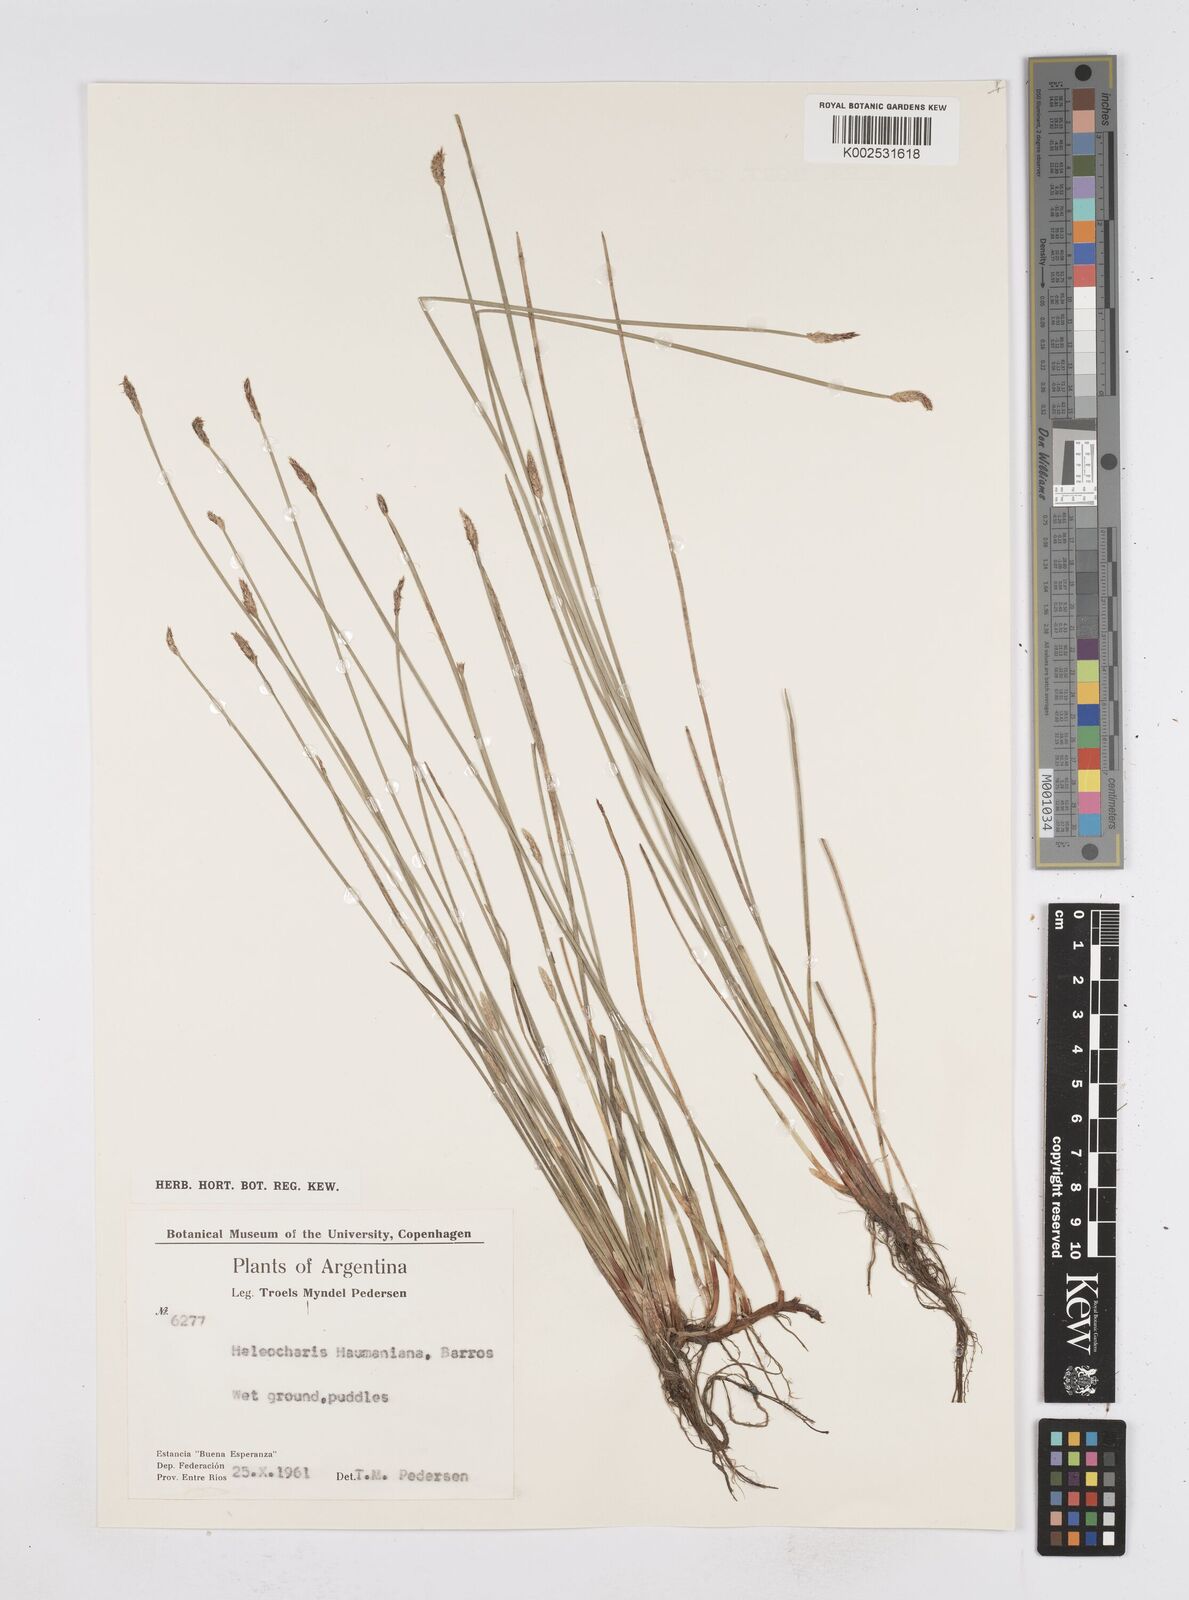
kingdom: Plantae
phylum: Tracheophyta
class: Liliopsida
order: Poales
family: Cyperaceae
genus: Eleocharis
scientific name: Eleocharis haumaniana
